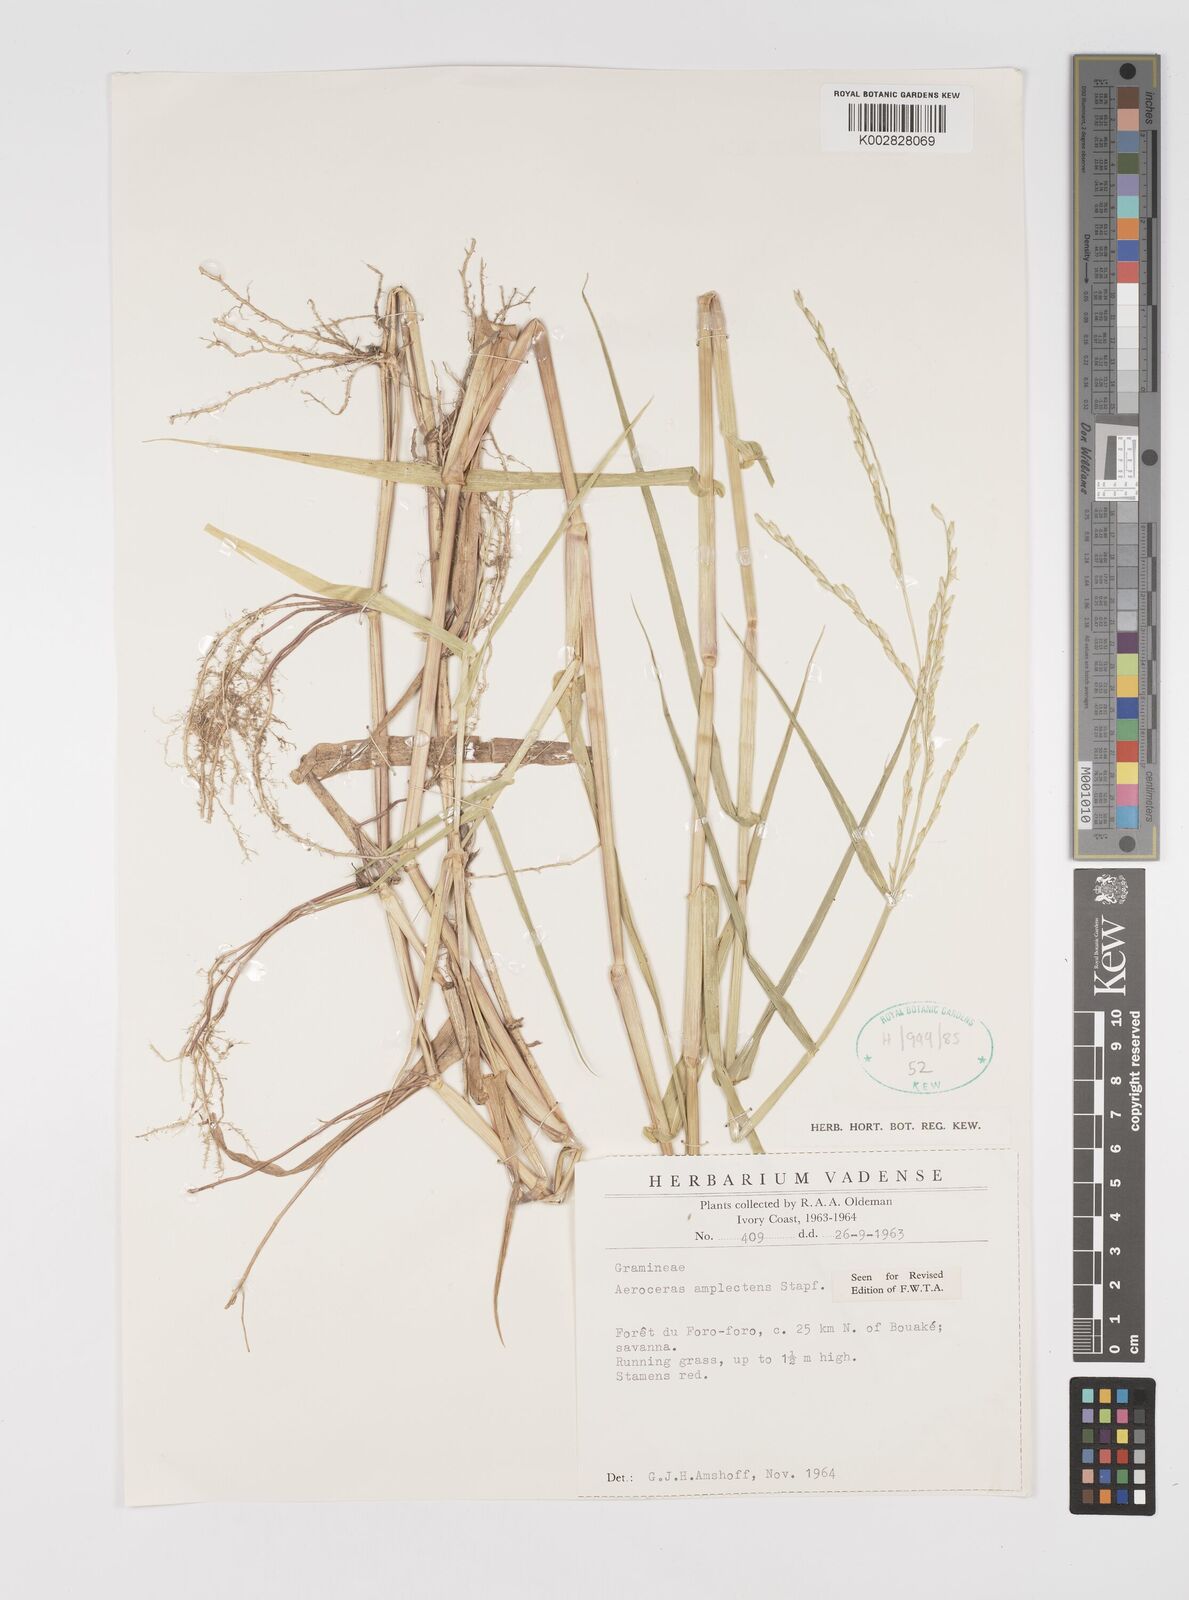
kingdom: Plantae
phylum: Tracheophyta
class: Liliopsida
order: Poales
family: Poaceae
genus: Acroceras
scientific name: Acroceras amplectens
